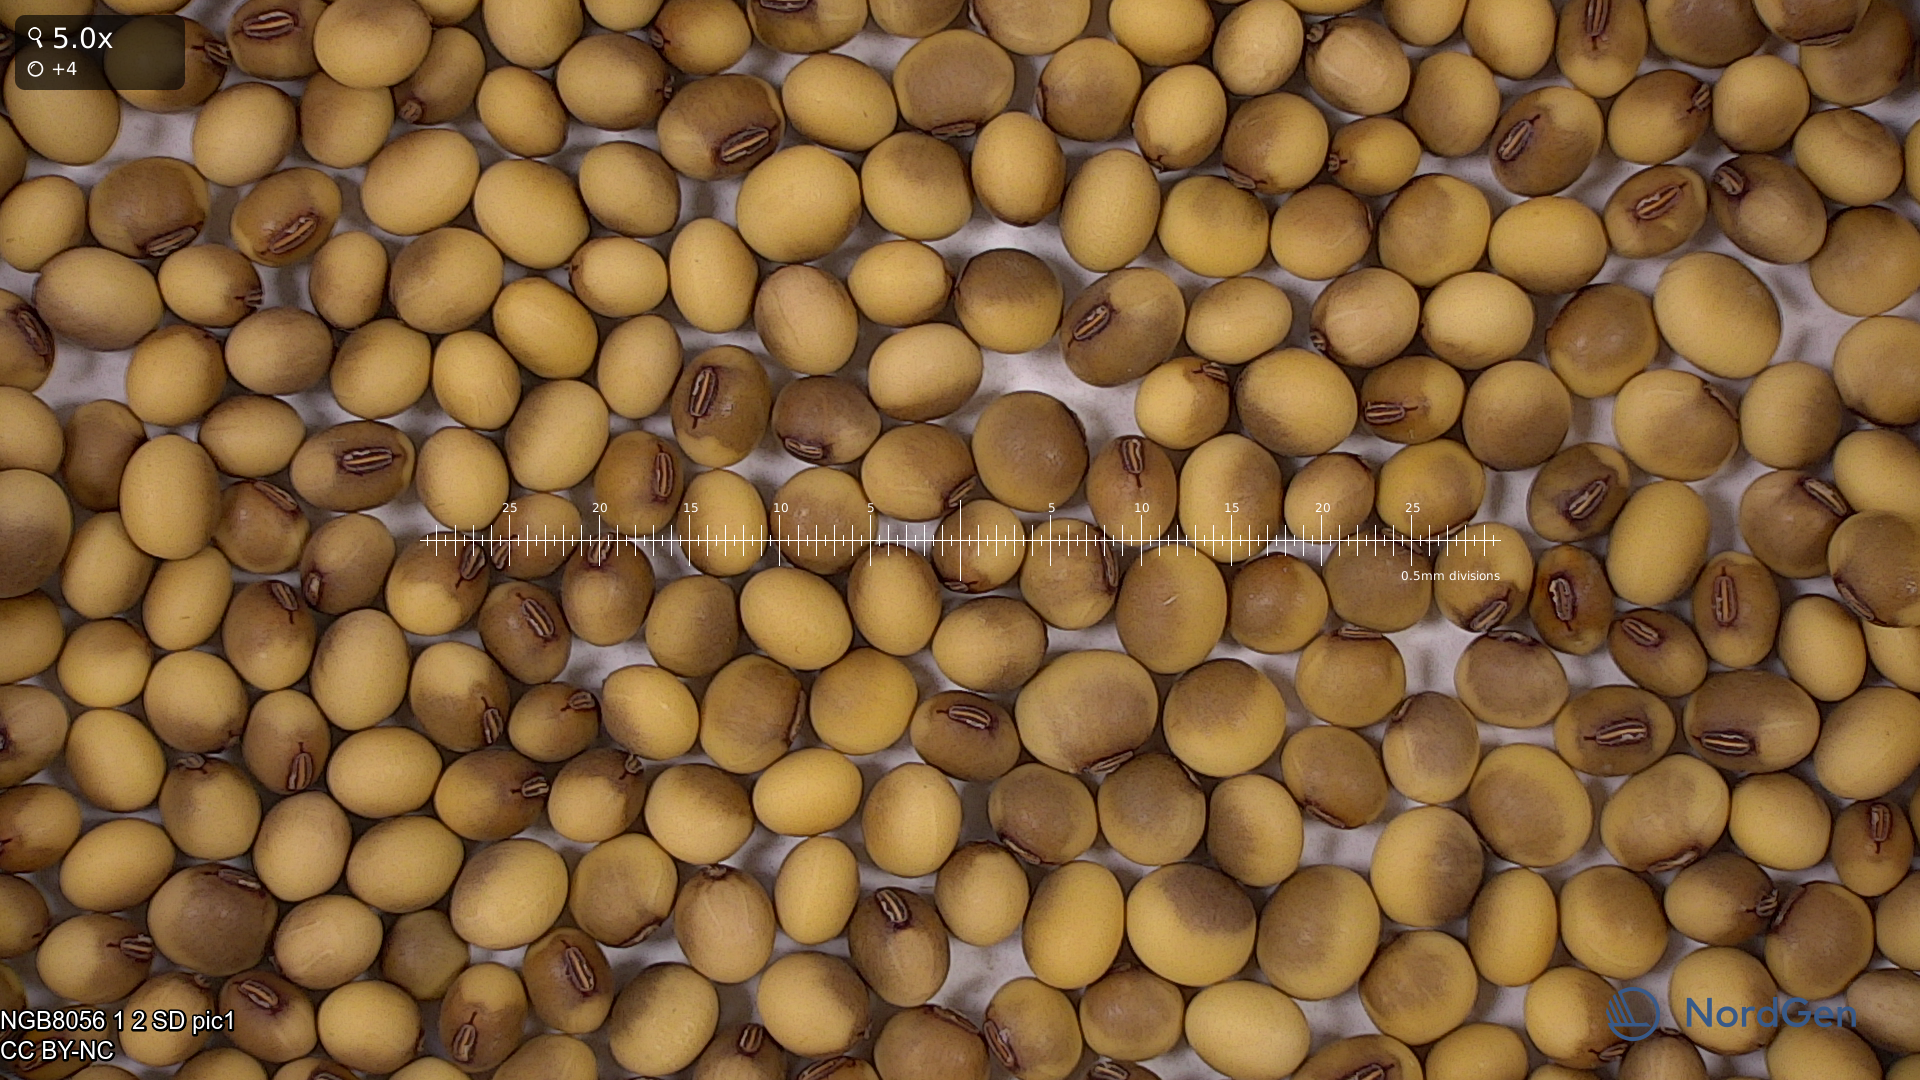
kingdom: Plantae
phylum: Tracheophyta
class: Magnoliopsida
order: Fabales
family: Fabaceae
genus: Glycine
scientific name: Glycine max
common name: Soya-bean
